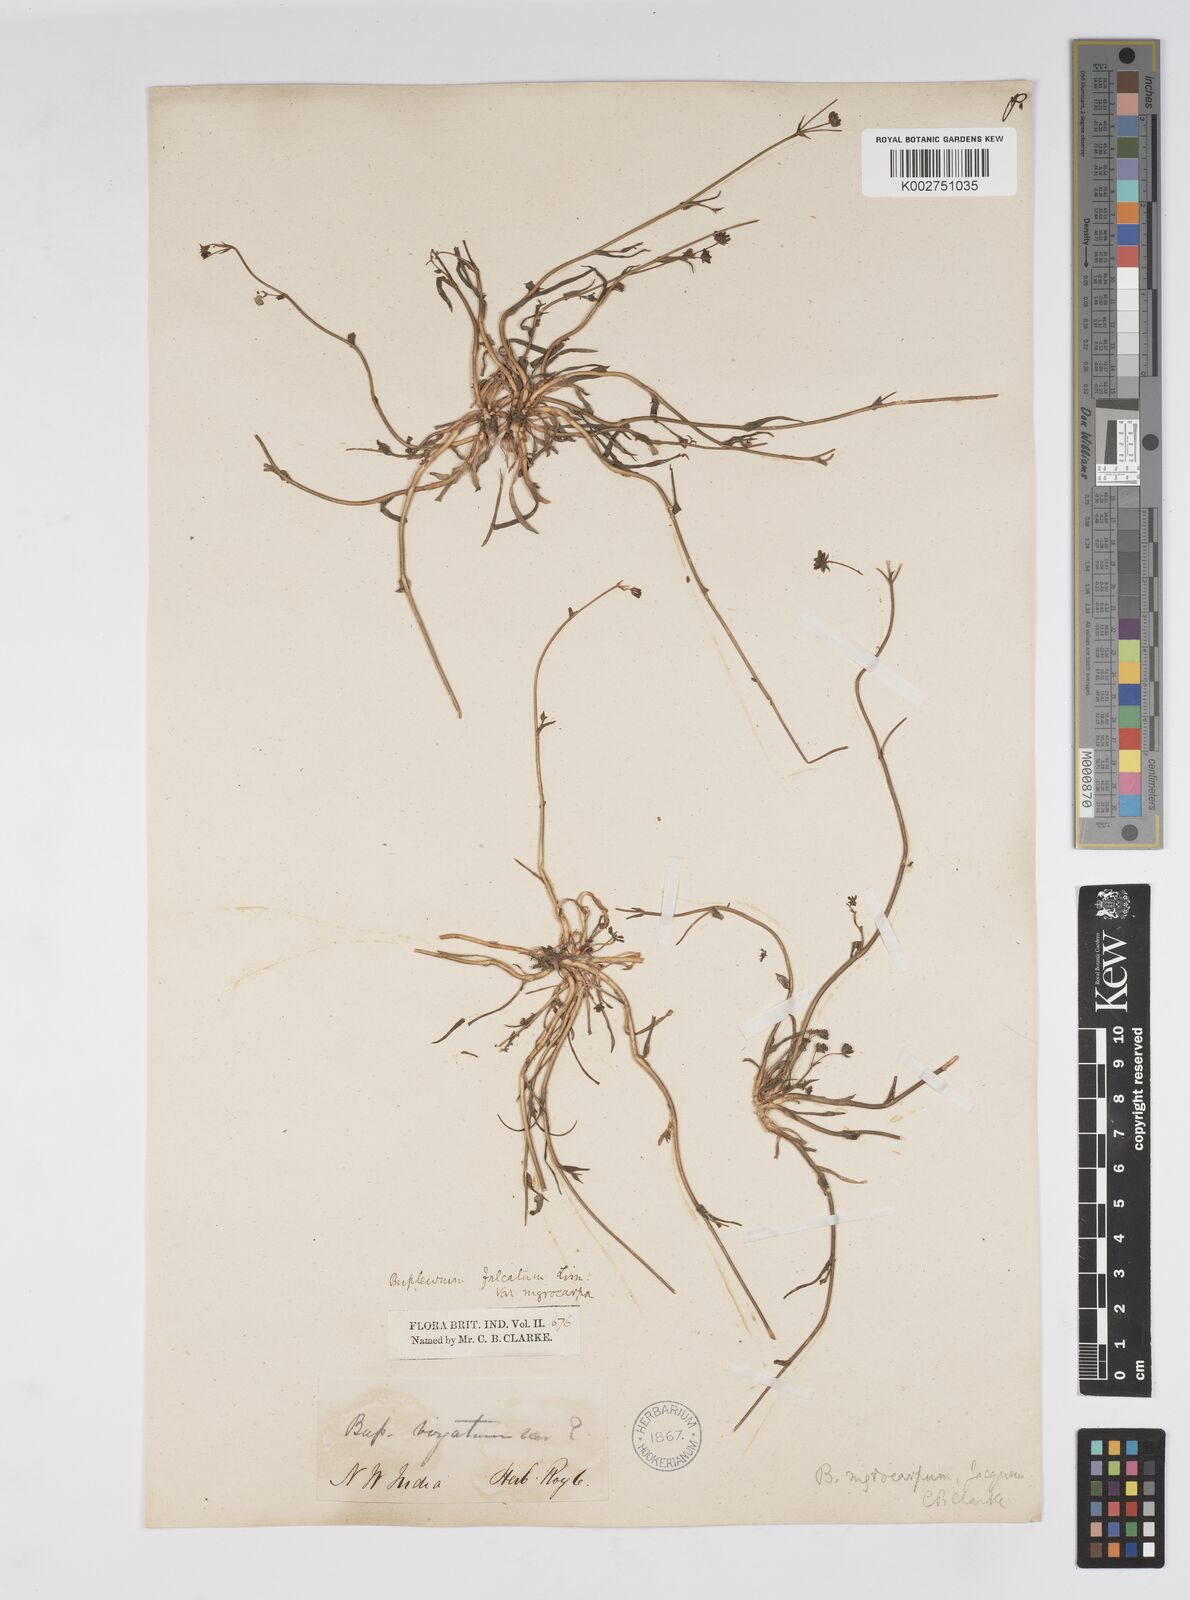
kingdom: Plantae
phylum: Tracheophyta
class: Magnoliopsida
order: Apiales
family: Apiaceae
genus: Bupleurum
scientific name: Bupleurum falcatum
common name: Sickle-leaved hare's-ear
